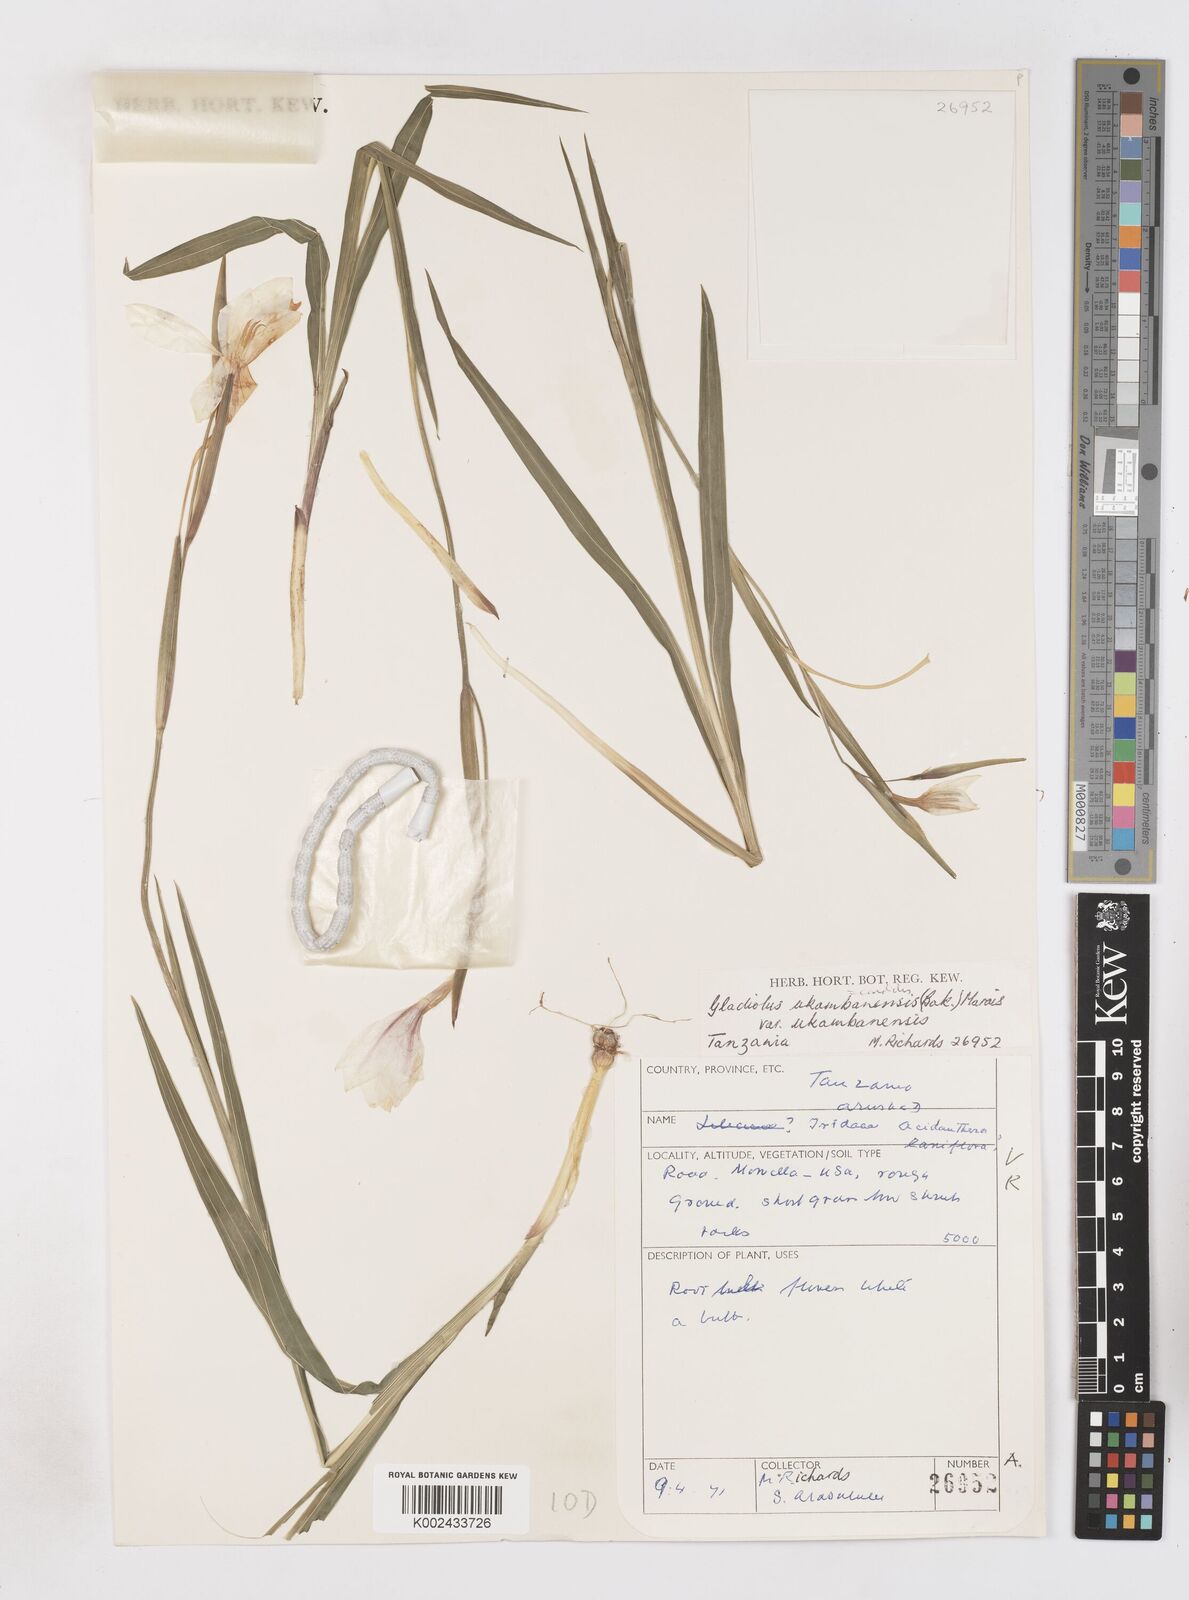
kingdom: Plantae
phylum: Tracheophyta
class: Liliopsida
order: Asparagales
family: Iridaceae
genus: Gladiolus
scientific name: Gladiolus candidus
